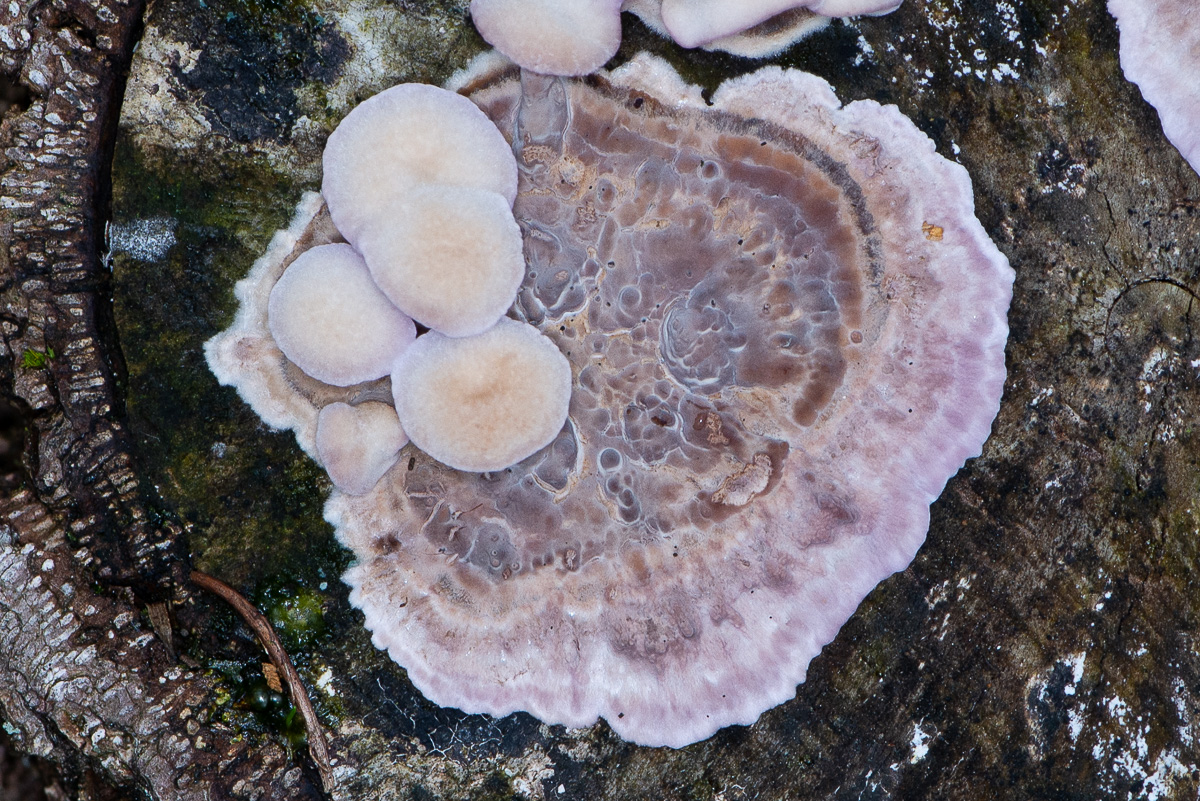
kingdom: Fungi
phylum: Basidiomycota
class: Agaricomycetes
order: Agaricales
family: Cyphellaceae
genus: Chondrostereum
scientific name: Chondrostereum purpureum
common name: purpurlædersvamp
